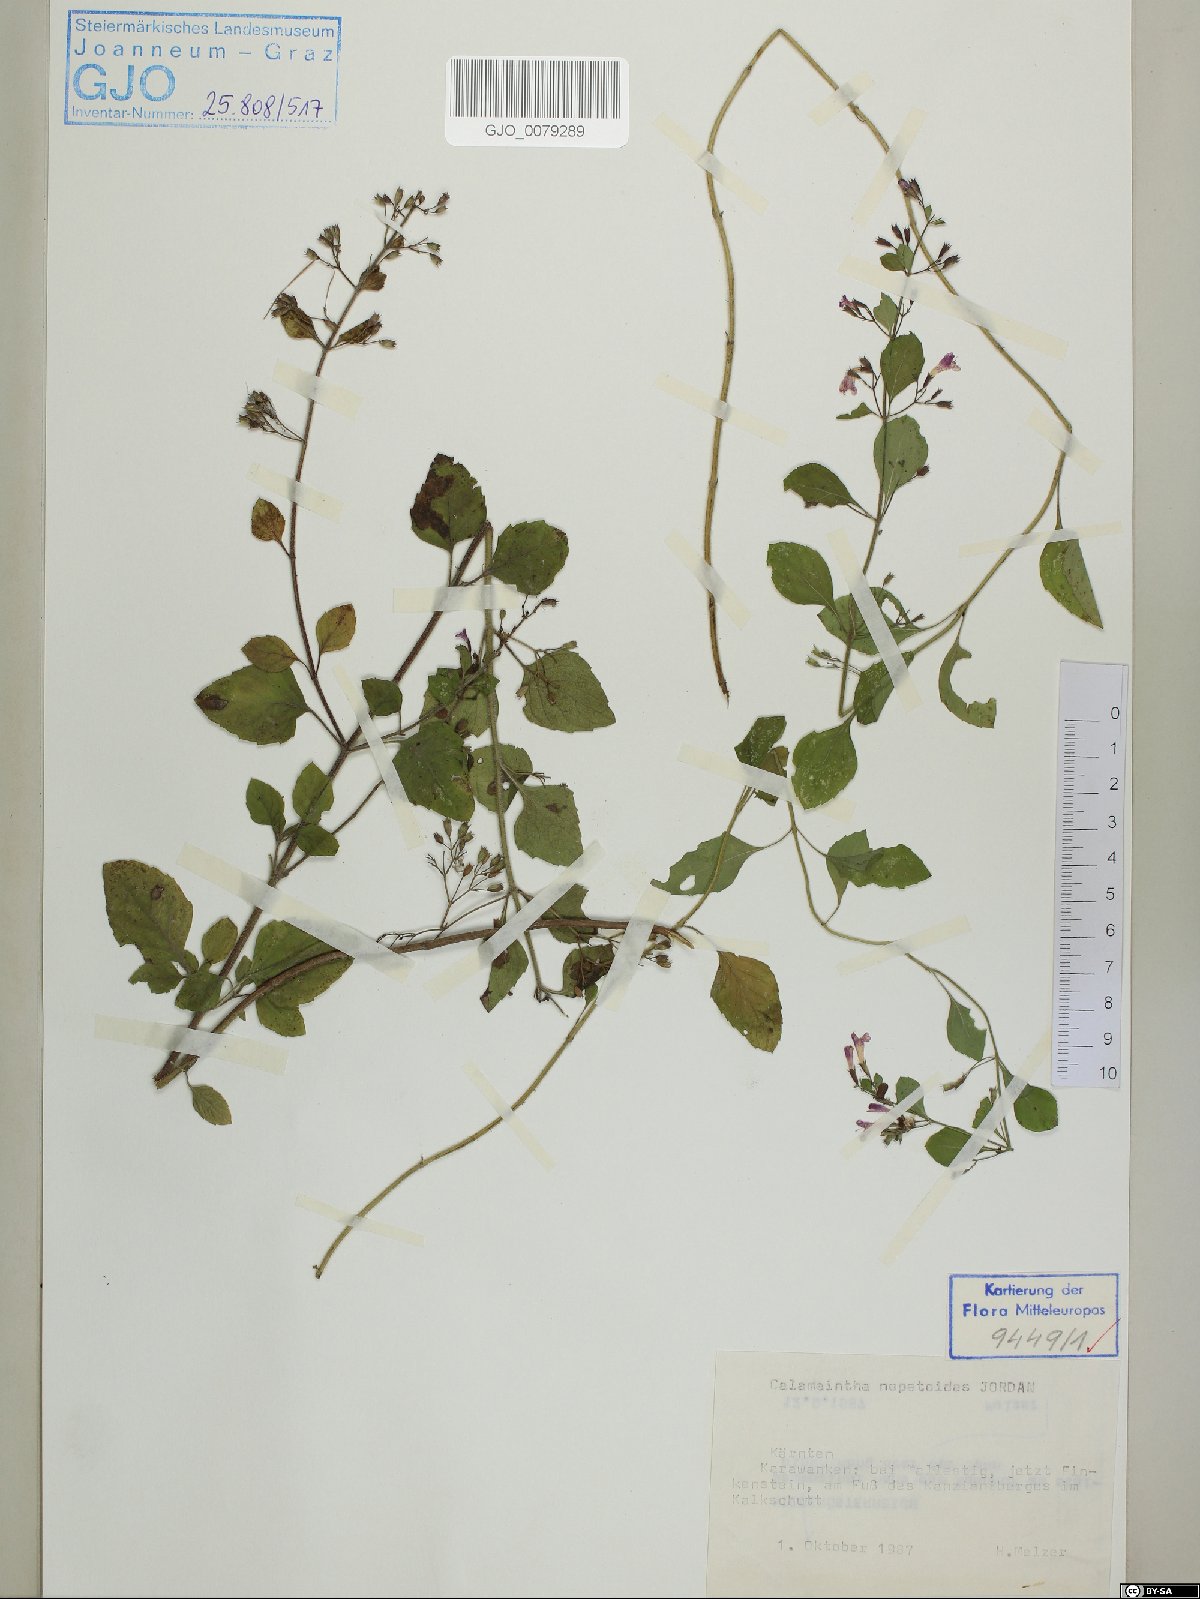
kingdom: Plantae
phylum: Tracheophyta
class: Magnoliopsida
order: Lamiales
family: Lamiaceae
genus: Clinopodium
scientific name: Clinopodium nepeta
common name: Lesser calamint
